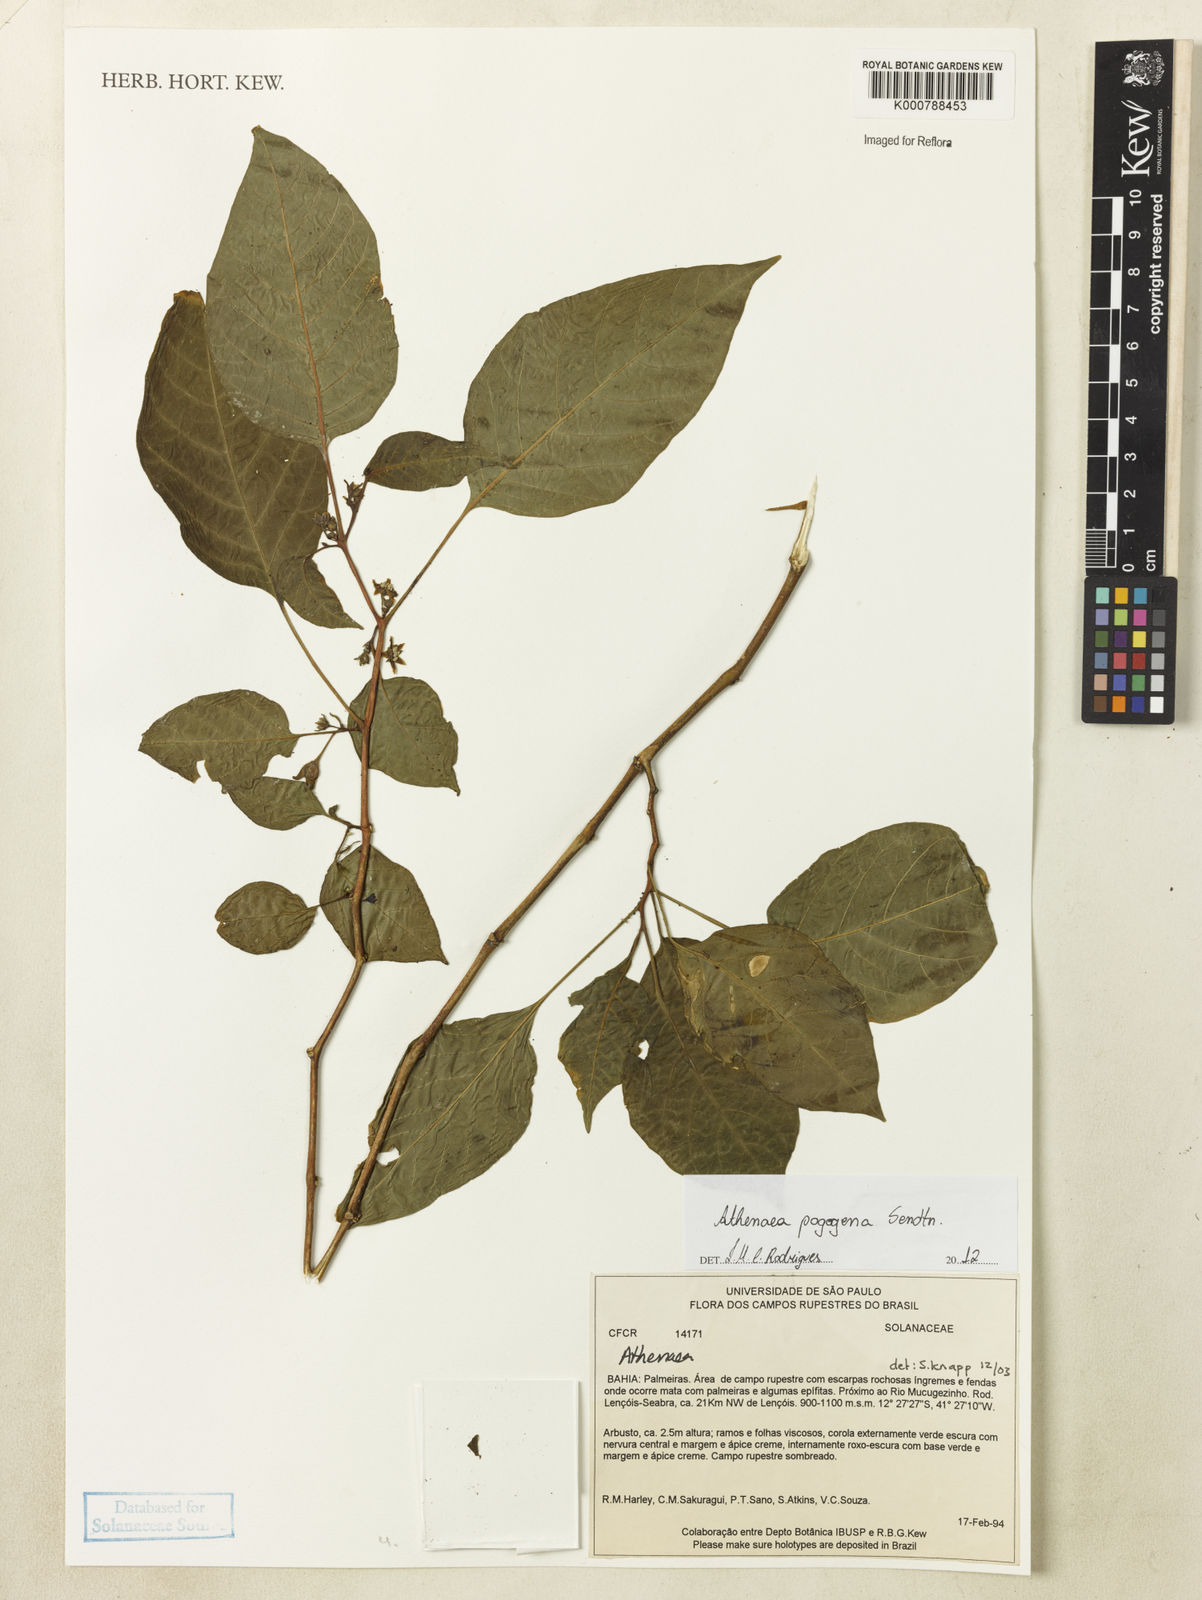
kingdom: Plantae
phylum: Tracheophyta
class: Magnoliopsida
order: Solanales
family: Solanaceae
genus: Athenaea
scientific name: Athenaea pogogena
